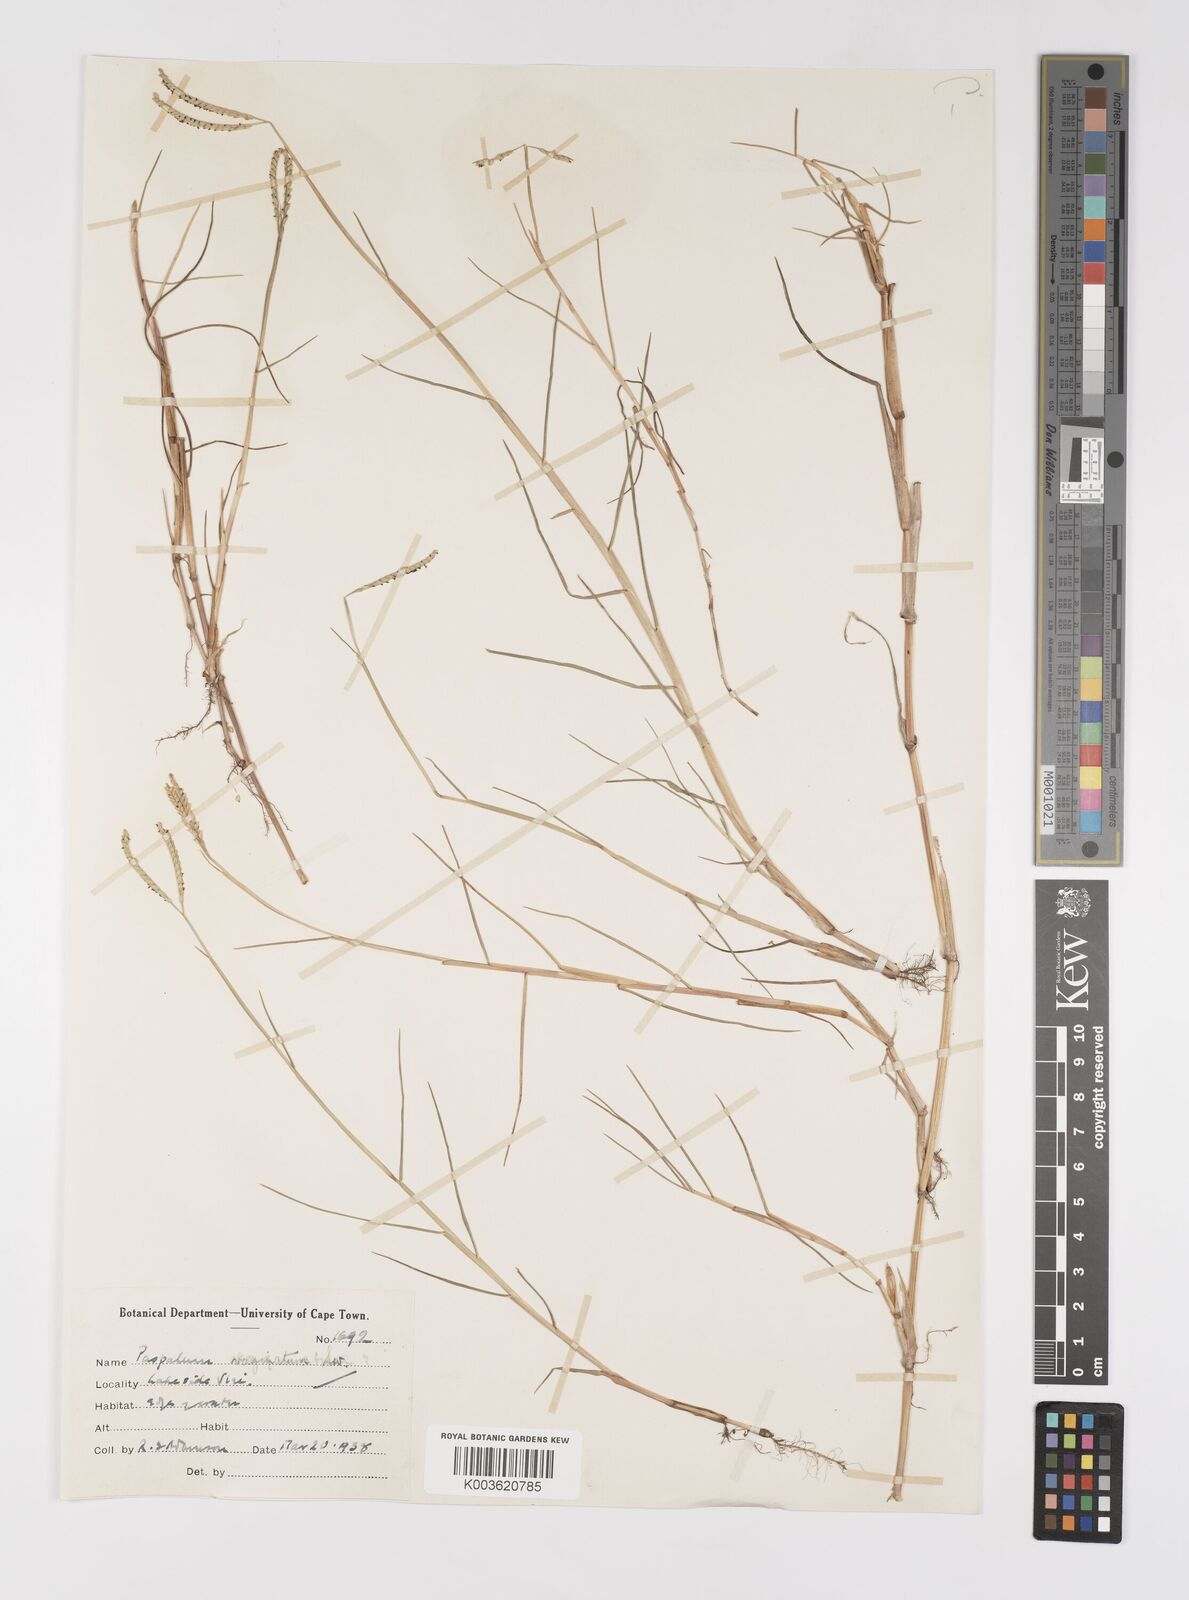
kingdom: Plantae
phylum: Tracheophyta
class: Liliopsida
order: Poales
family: Poaceae
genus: Paspalum
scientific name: Paspalum vaginatum
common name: Seashore paspalum
